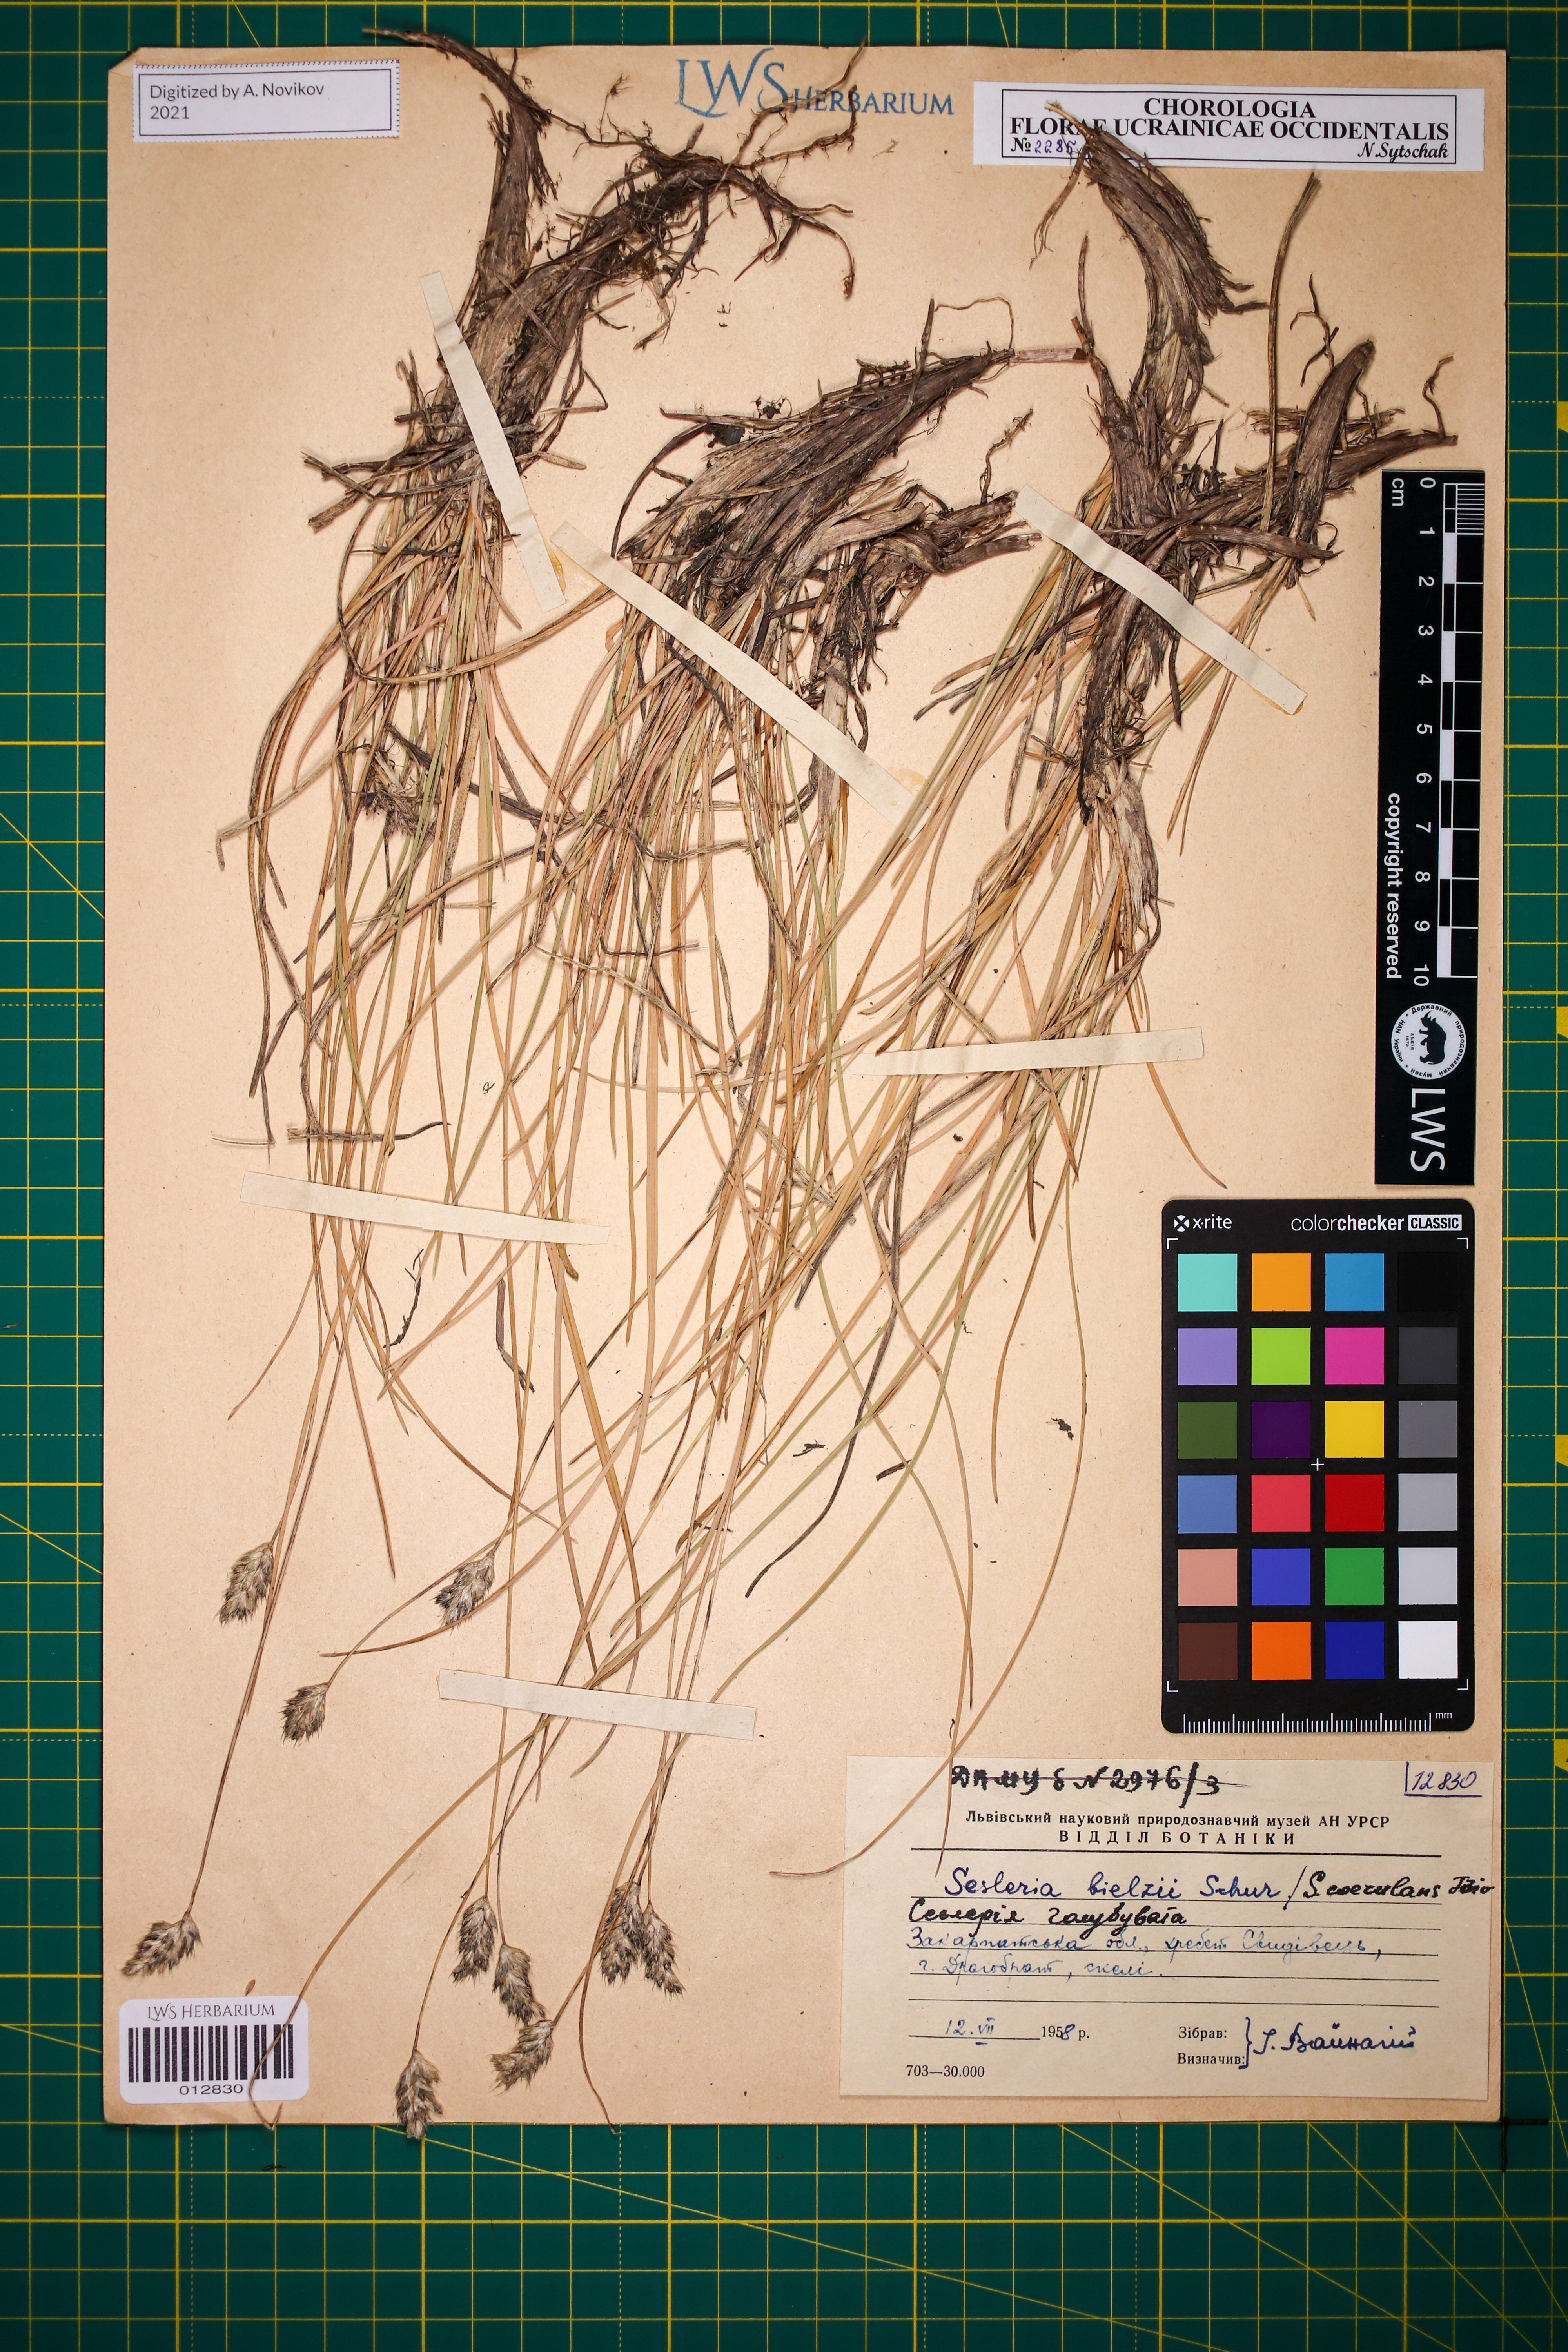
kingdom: Plantae
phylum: Tracheophyta
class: Liliopsida
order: Poales
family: Poaceae
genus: Sesleria
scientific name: Sesleria bielzii
